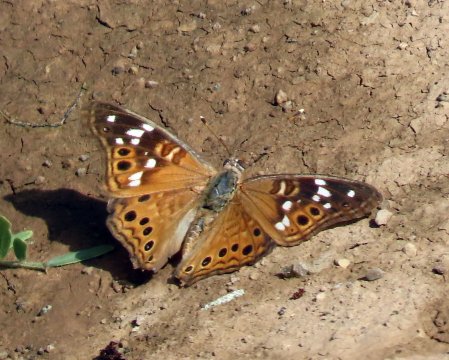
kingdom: Animalia
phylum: Arthropoda
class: Insecta
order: Lepidoptera
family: Nymphalidae
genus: Asterocampa
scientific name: Asterocampa leilia
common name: Empress Leilia
